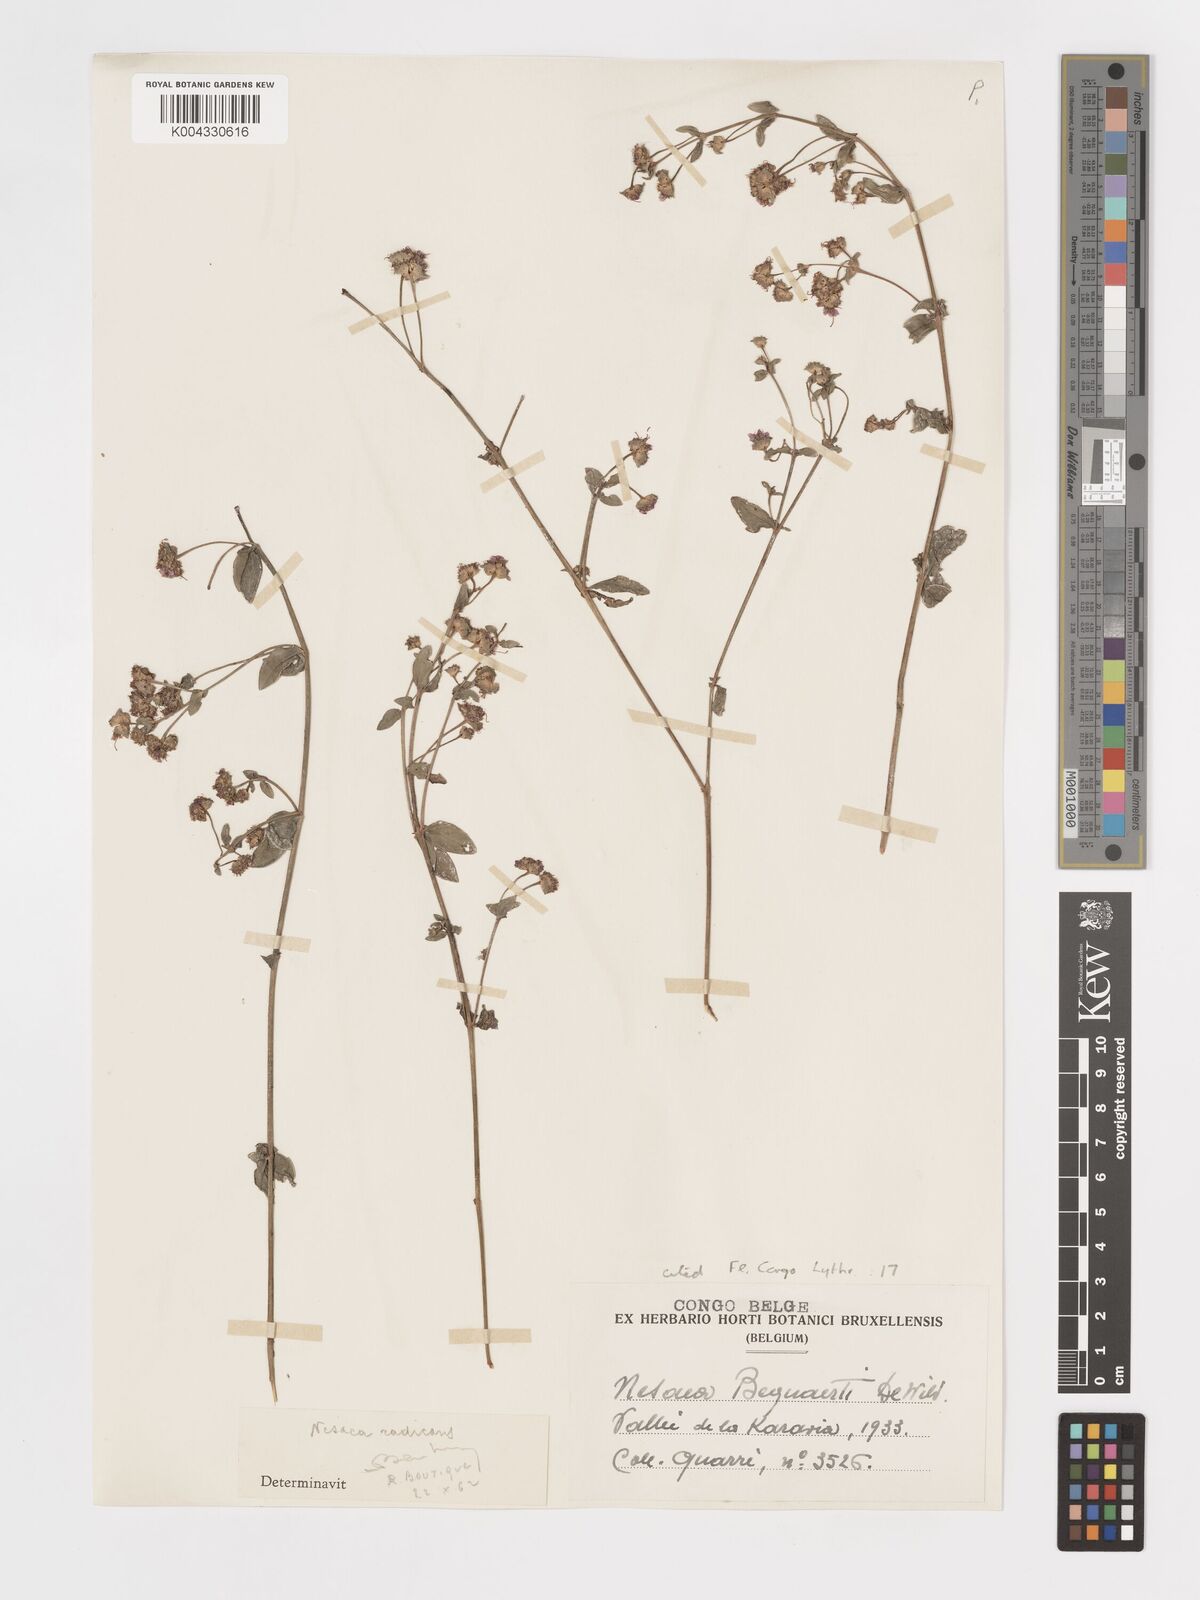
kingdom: Plantae
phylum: Tracheophyta
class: Magnoliopsida
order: Myrtales
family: Lythraceae
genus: Ammannia
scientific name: Ammannia radicans
